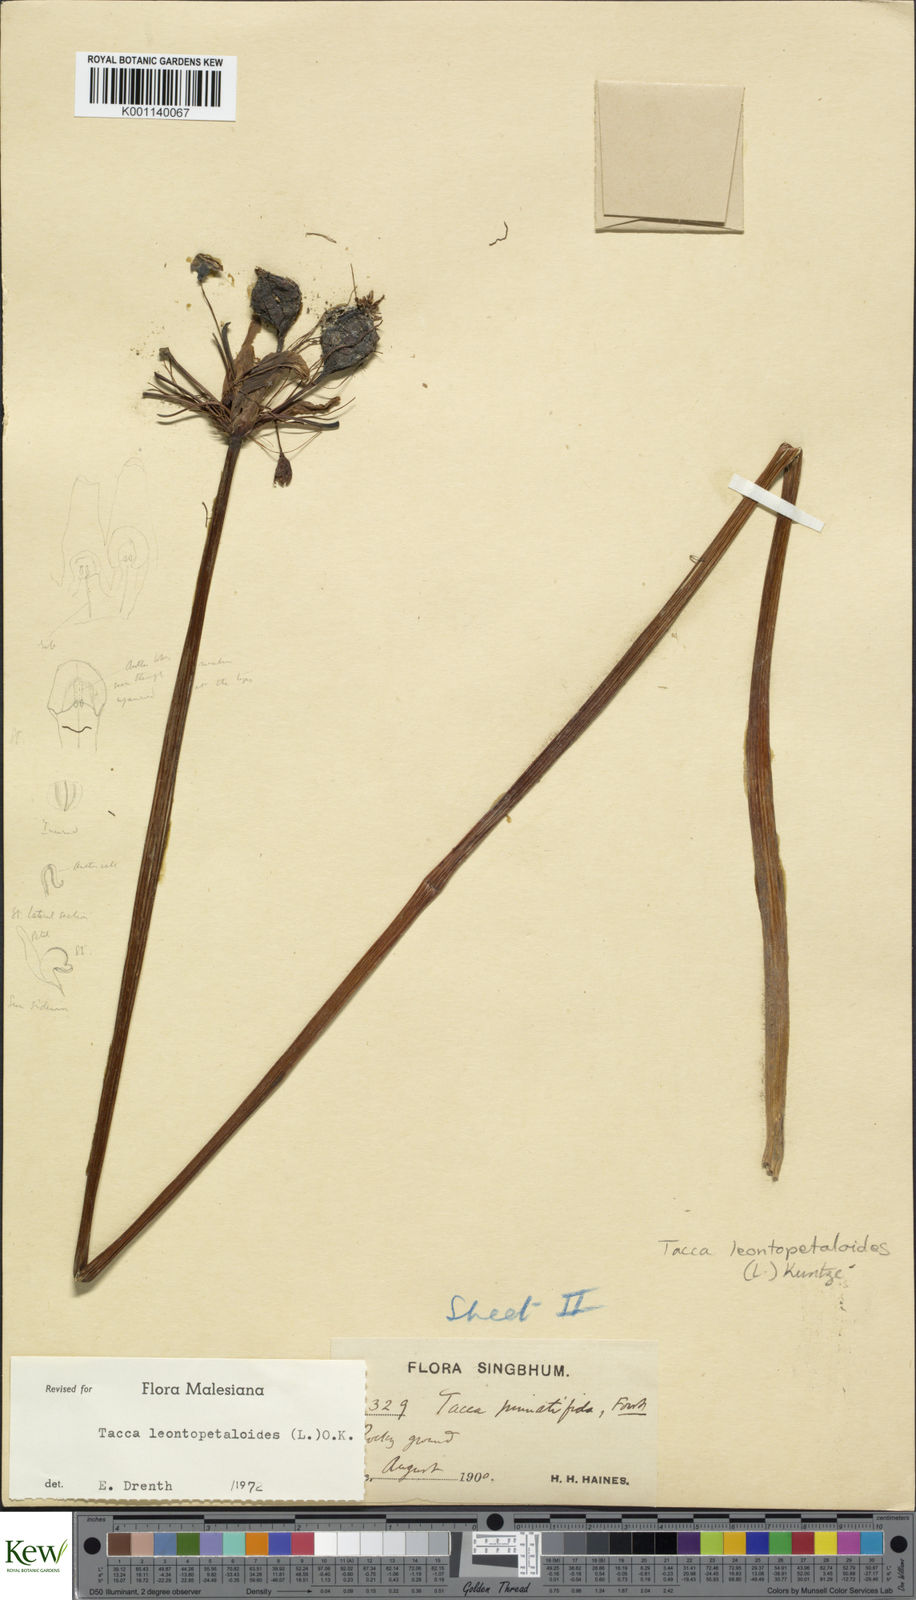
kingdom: Plantae
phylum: Tracheophyta
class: Liliopsida
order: Dioscoreales
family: Dioscoreaceae
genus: Tacca
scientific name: Tacca leontopetaloides
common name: Arrowroot
